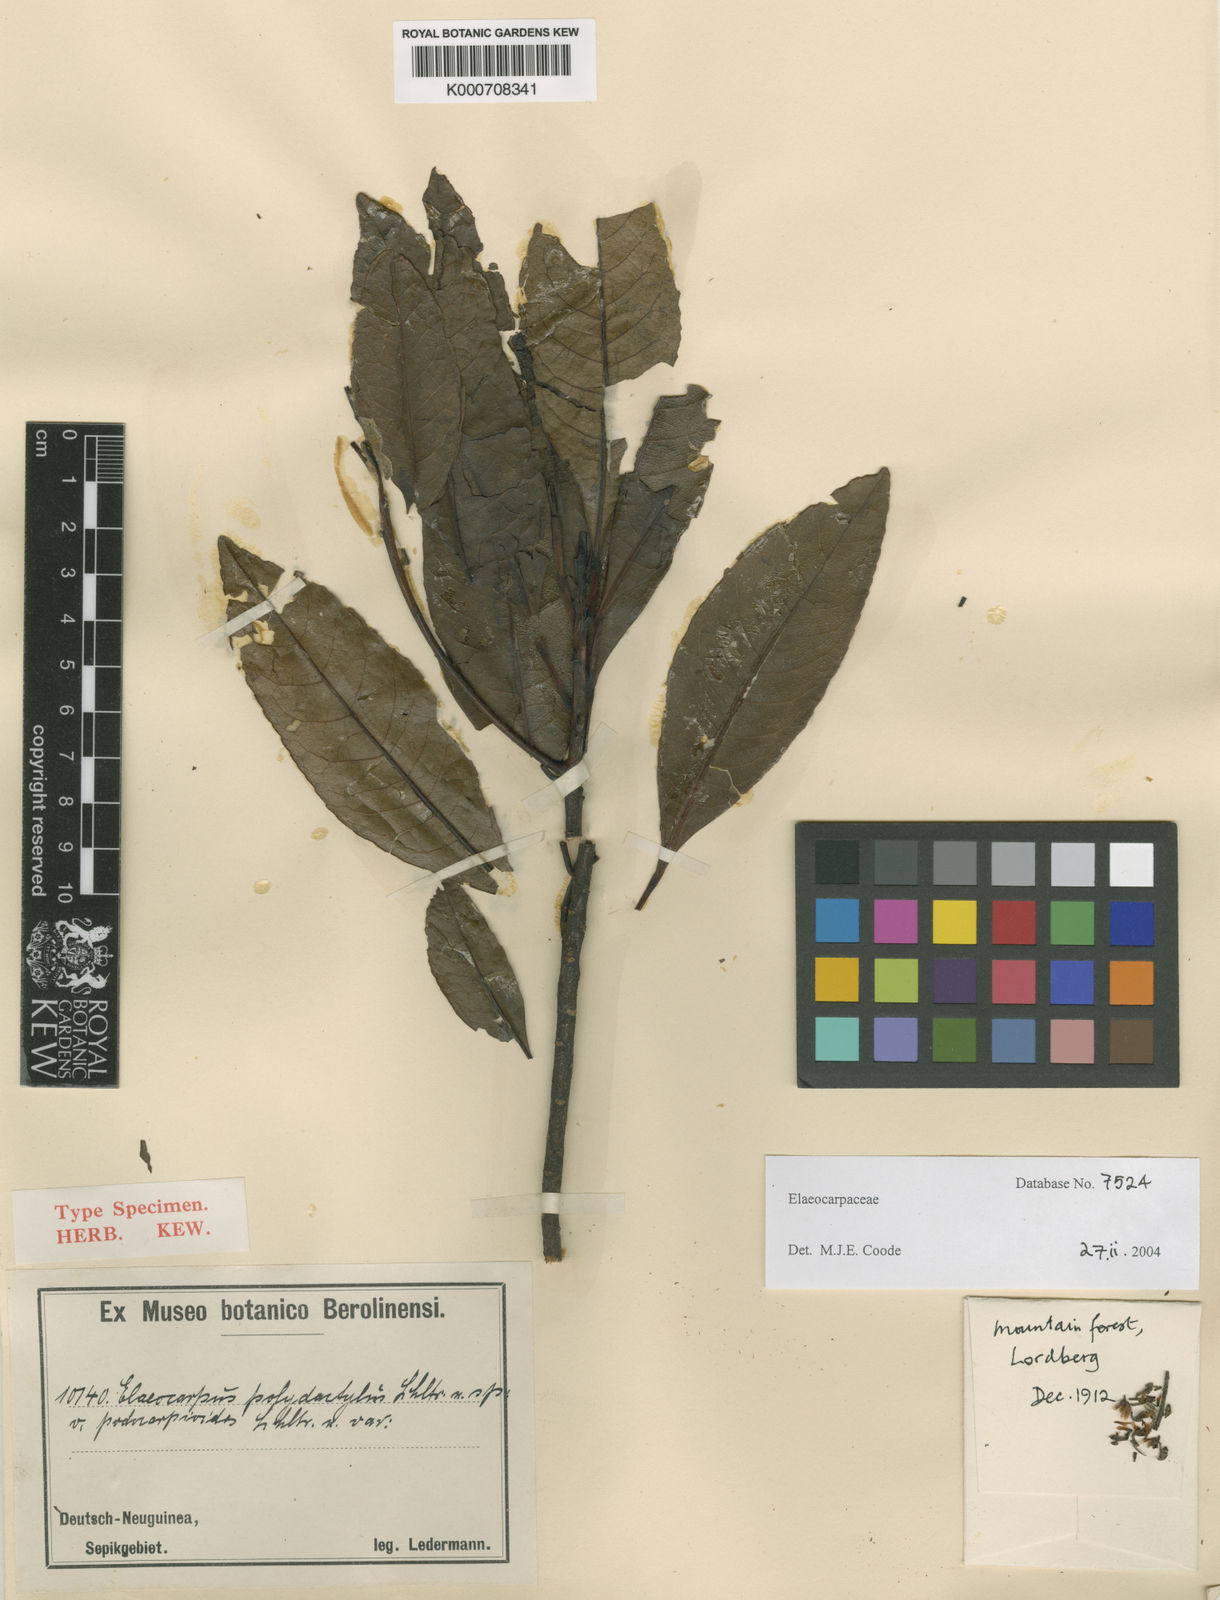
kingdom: Plantae
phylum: Tracheophyta
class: Magnoliopsida
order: Oxalidales
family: Elaeocarpaceae
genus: Elaeocarpus
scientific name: Elaeocarpus polydactylus
